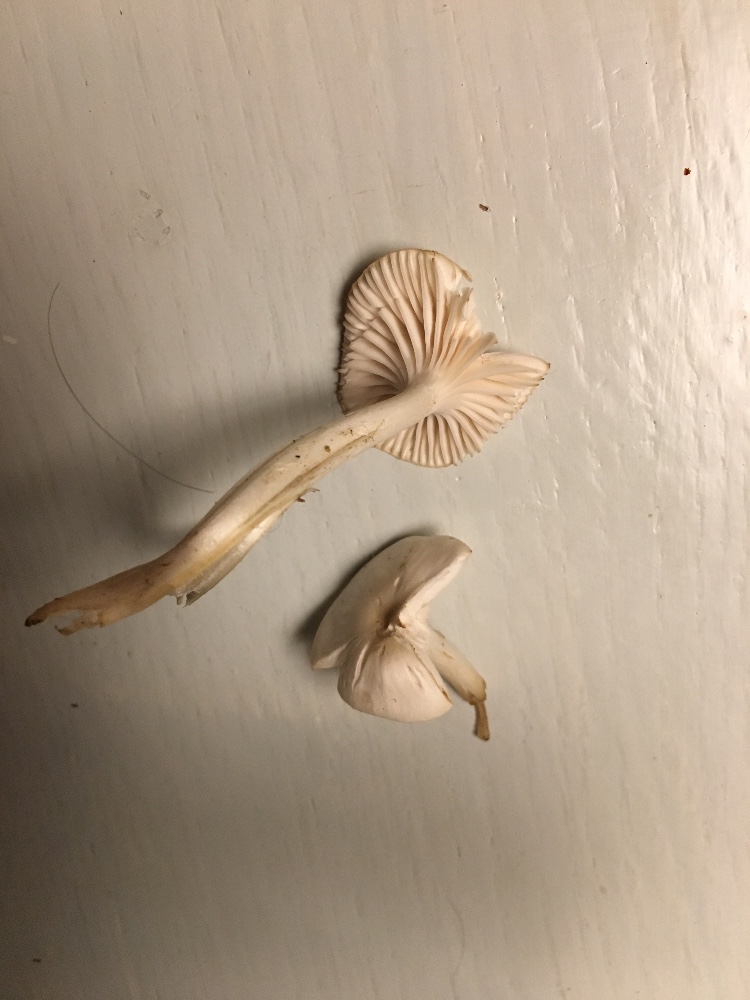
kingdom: Fungi
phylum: Basidiomycota
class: Agaricomycetes
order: Agaricales
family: Hygrophoraceae
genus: Cuphophyllus
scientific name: Cuphophyllus virgineus
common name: snehvid vokshat
